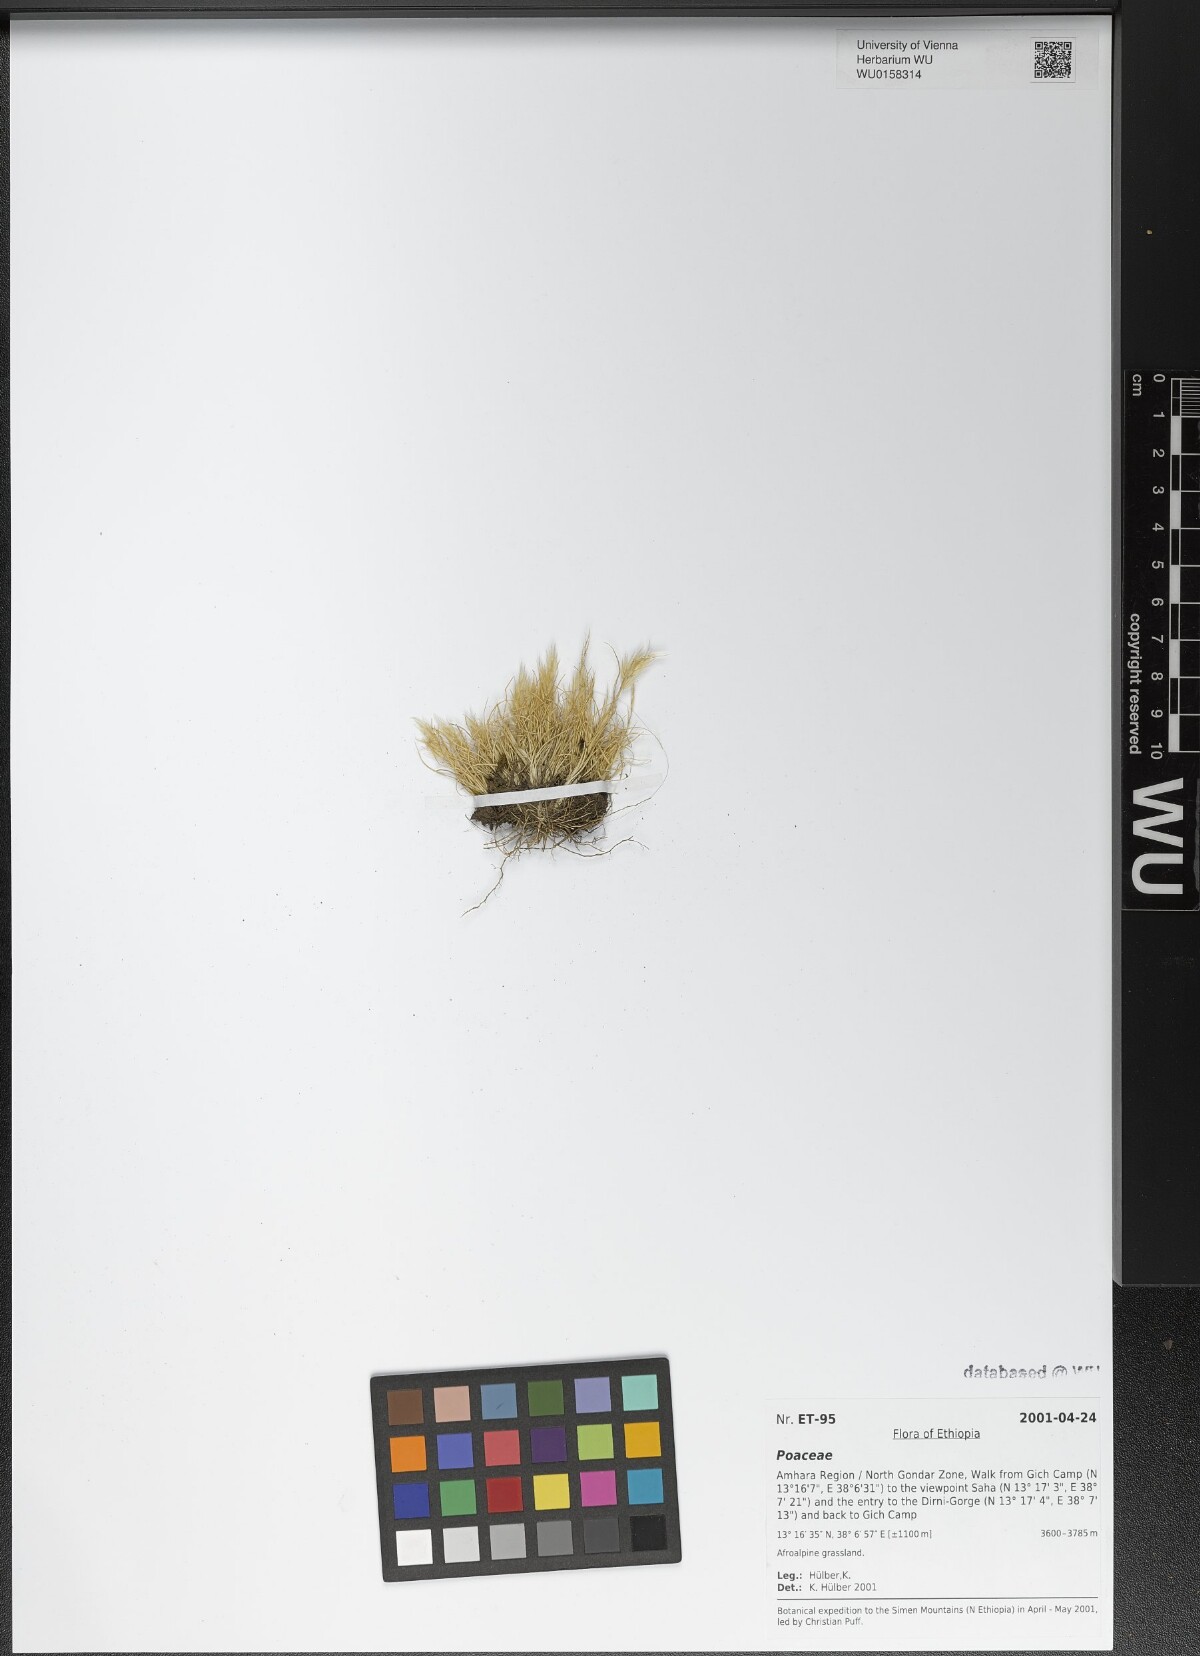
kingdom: Plantae
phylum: Tracheophyta
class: Liliopsida
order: Poales
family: Poaceae
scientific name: Poaceae
